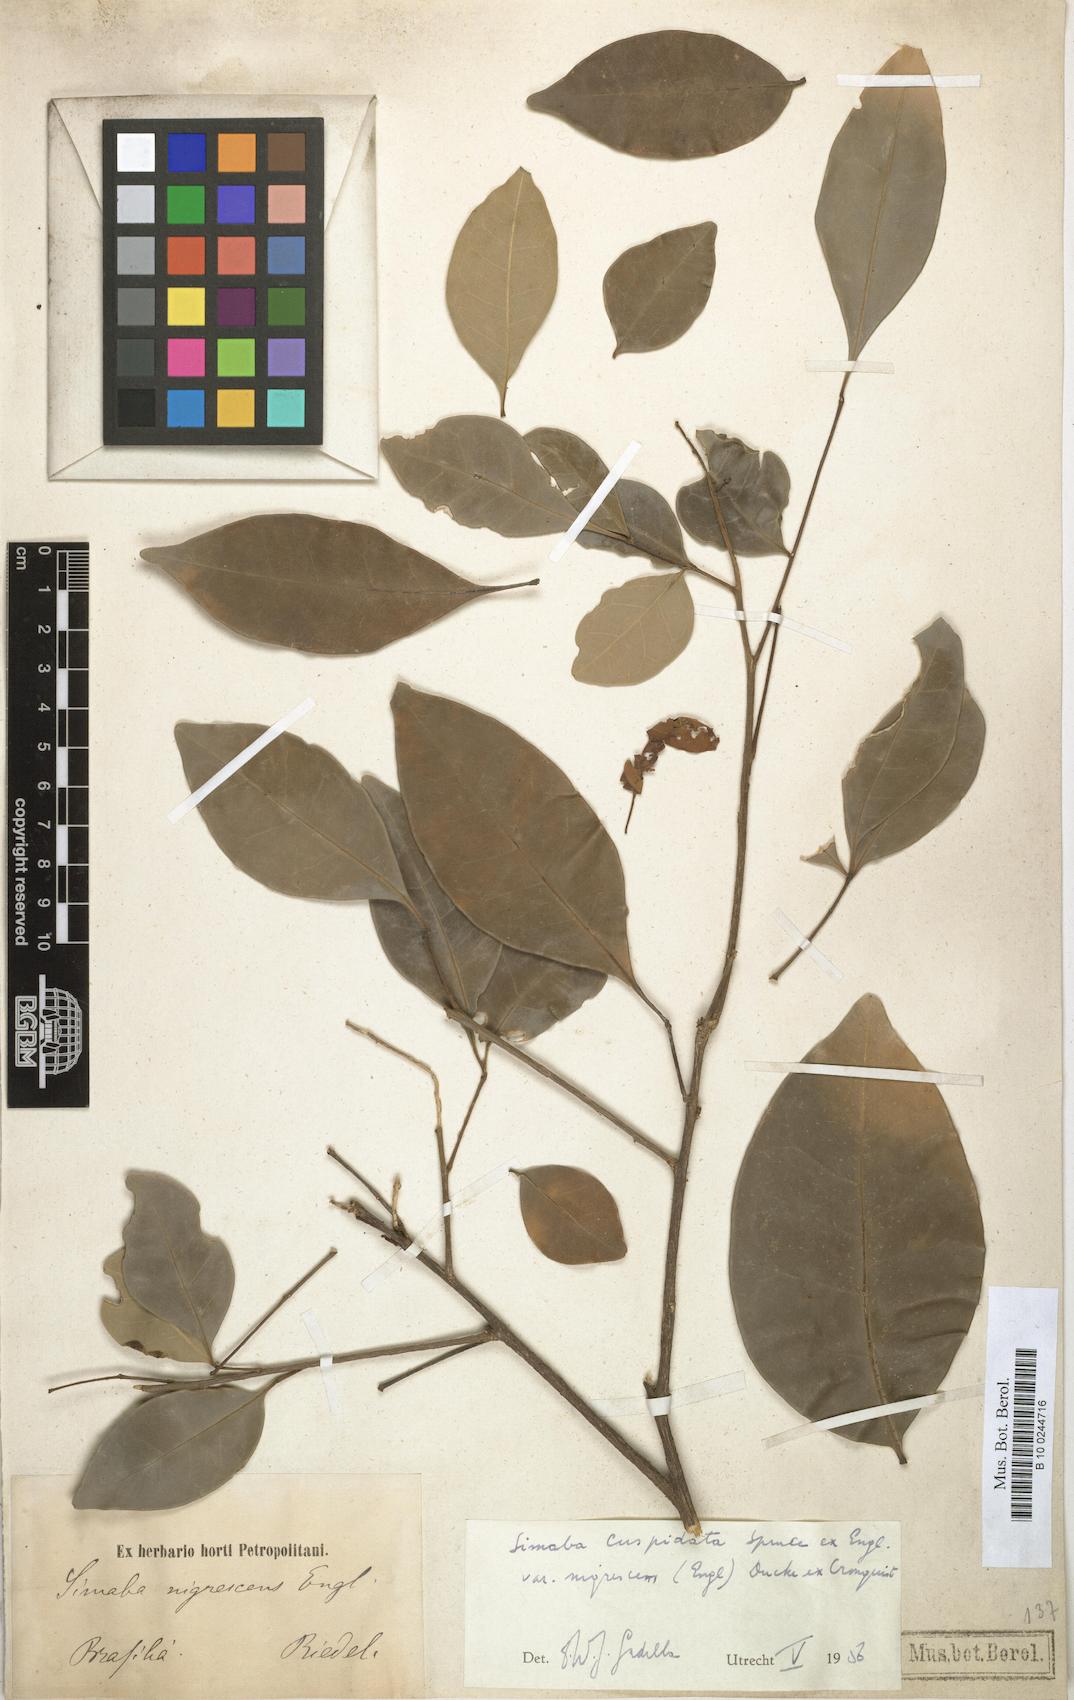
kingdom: Plantae
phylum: Tracheophyta
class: Magnoliopsida
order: Sapindales
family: Simaroubaceae
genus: Simaba
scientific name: Simaba guianensis
